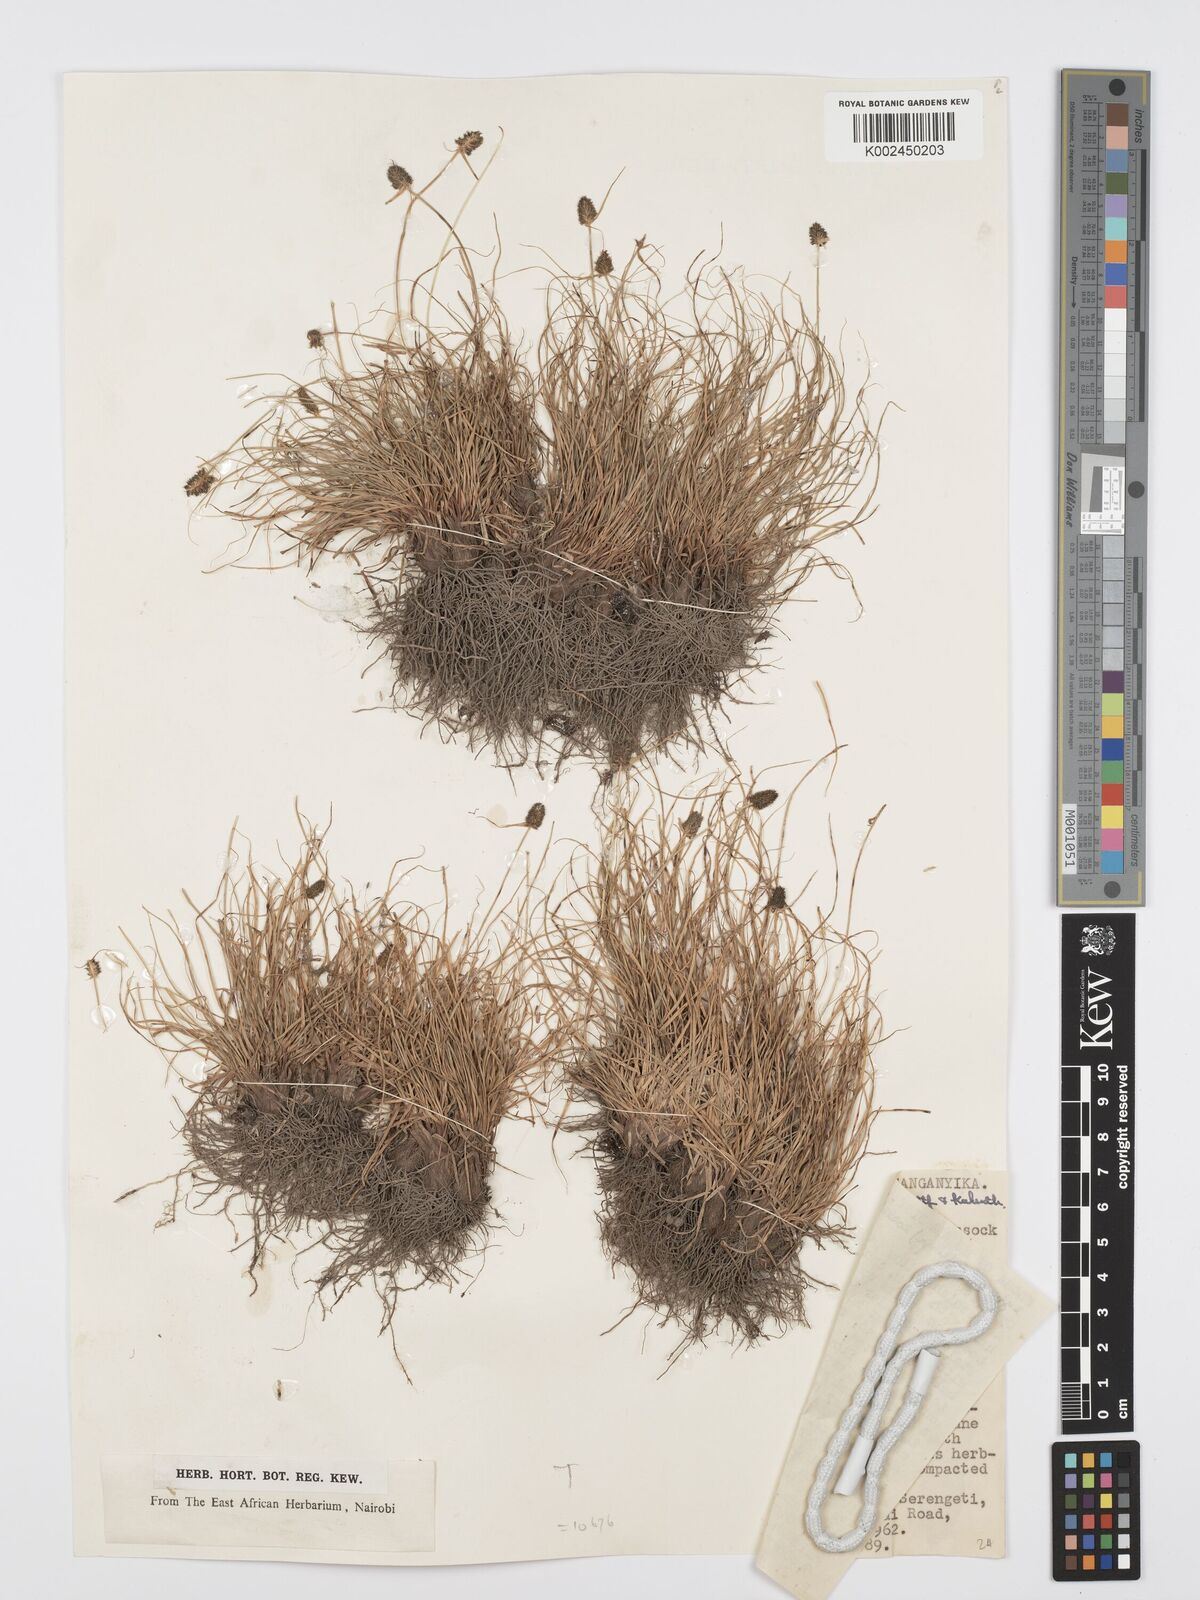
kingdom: Plantae
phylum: Tracheophyta
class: Liliopsida
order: Poales
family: Cyperaceae
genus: Cyperus
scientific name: Cyperus
